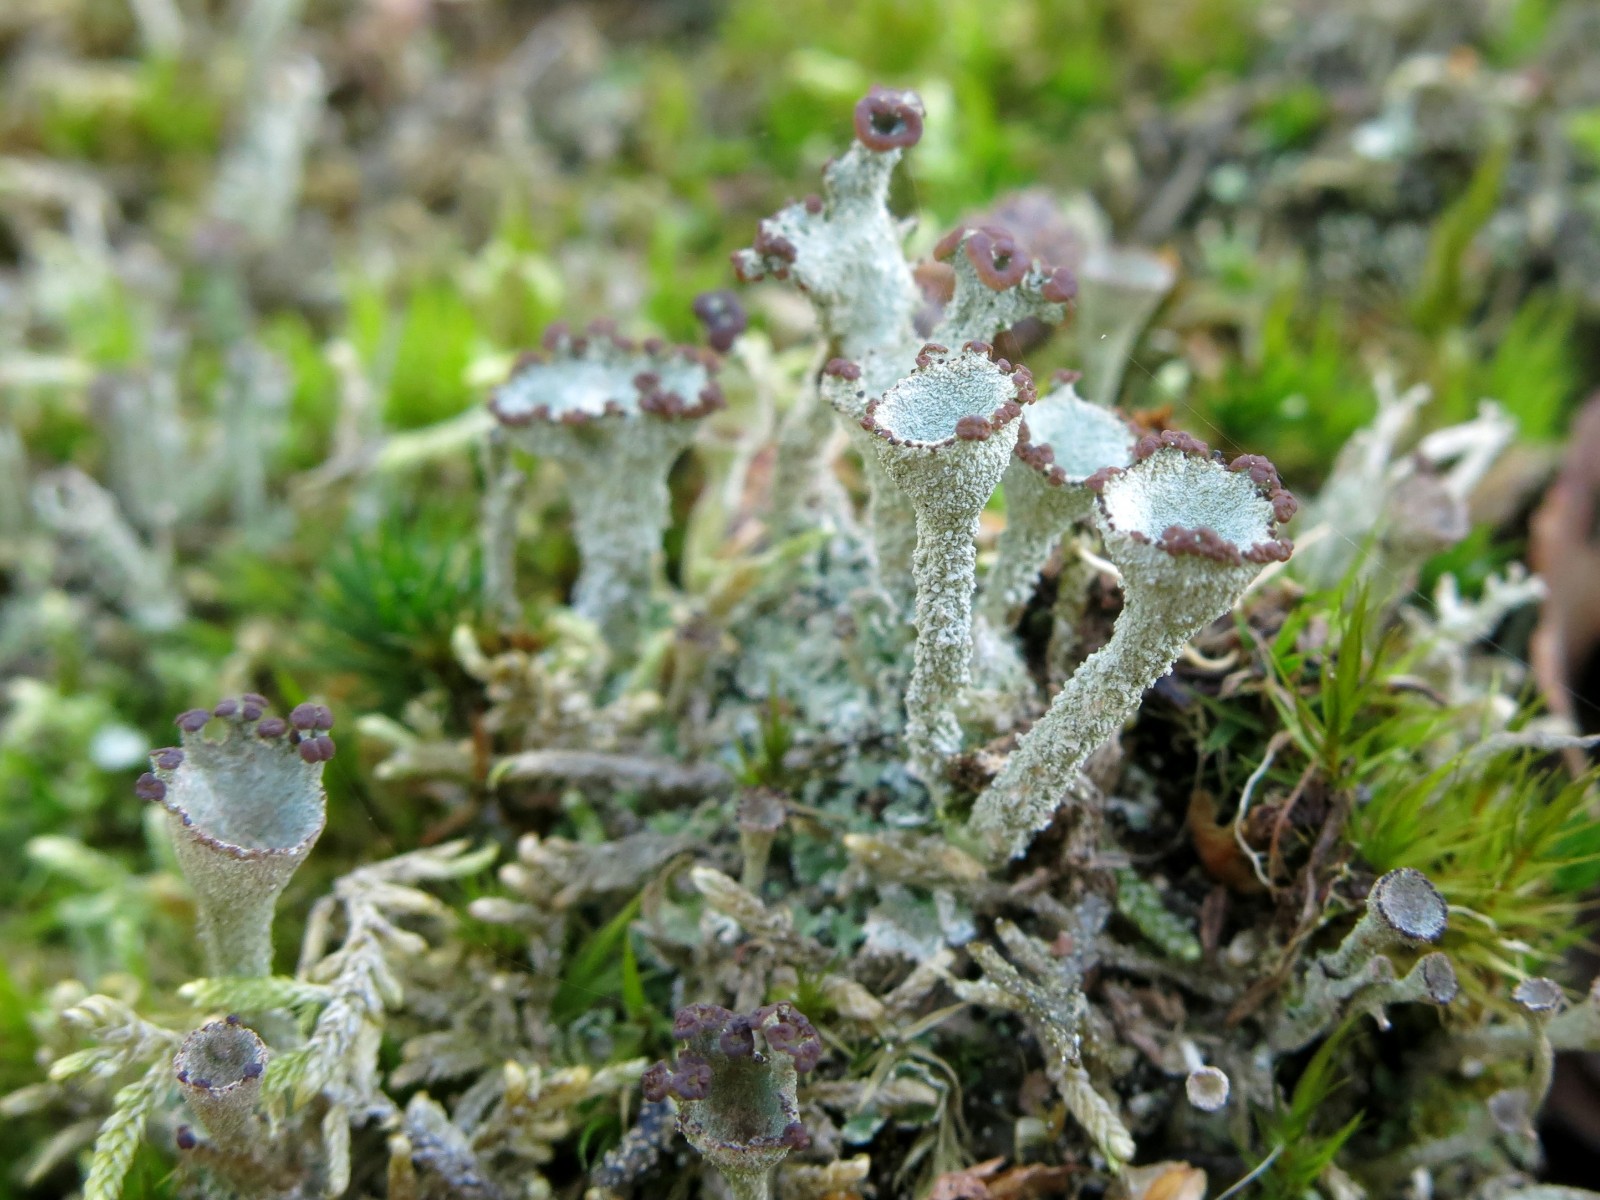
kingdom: Fungi
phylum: Ascomycota
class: Lecanoromycetes
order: Lecanorales
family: Cladoniaceae
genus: Cladonia
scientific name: Cladonia
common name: brungrøn bægerlav
